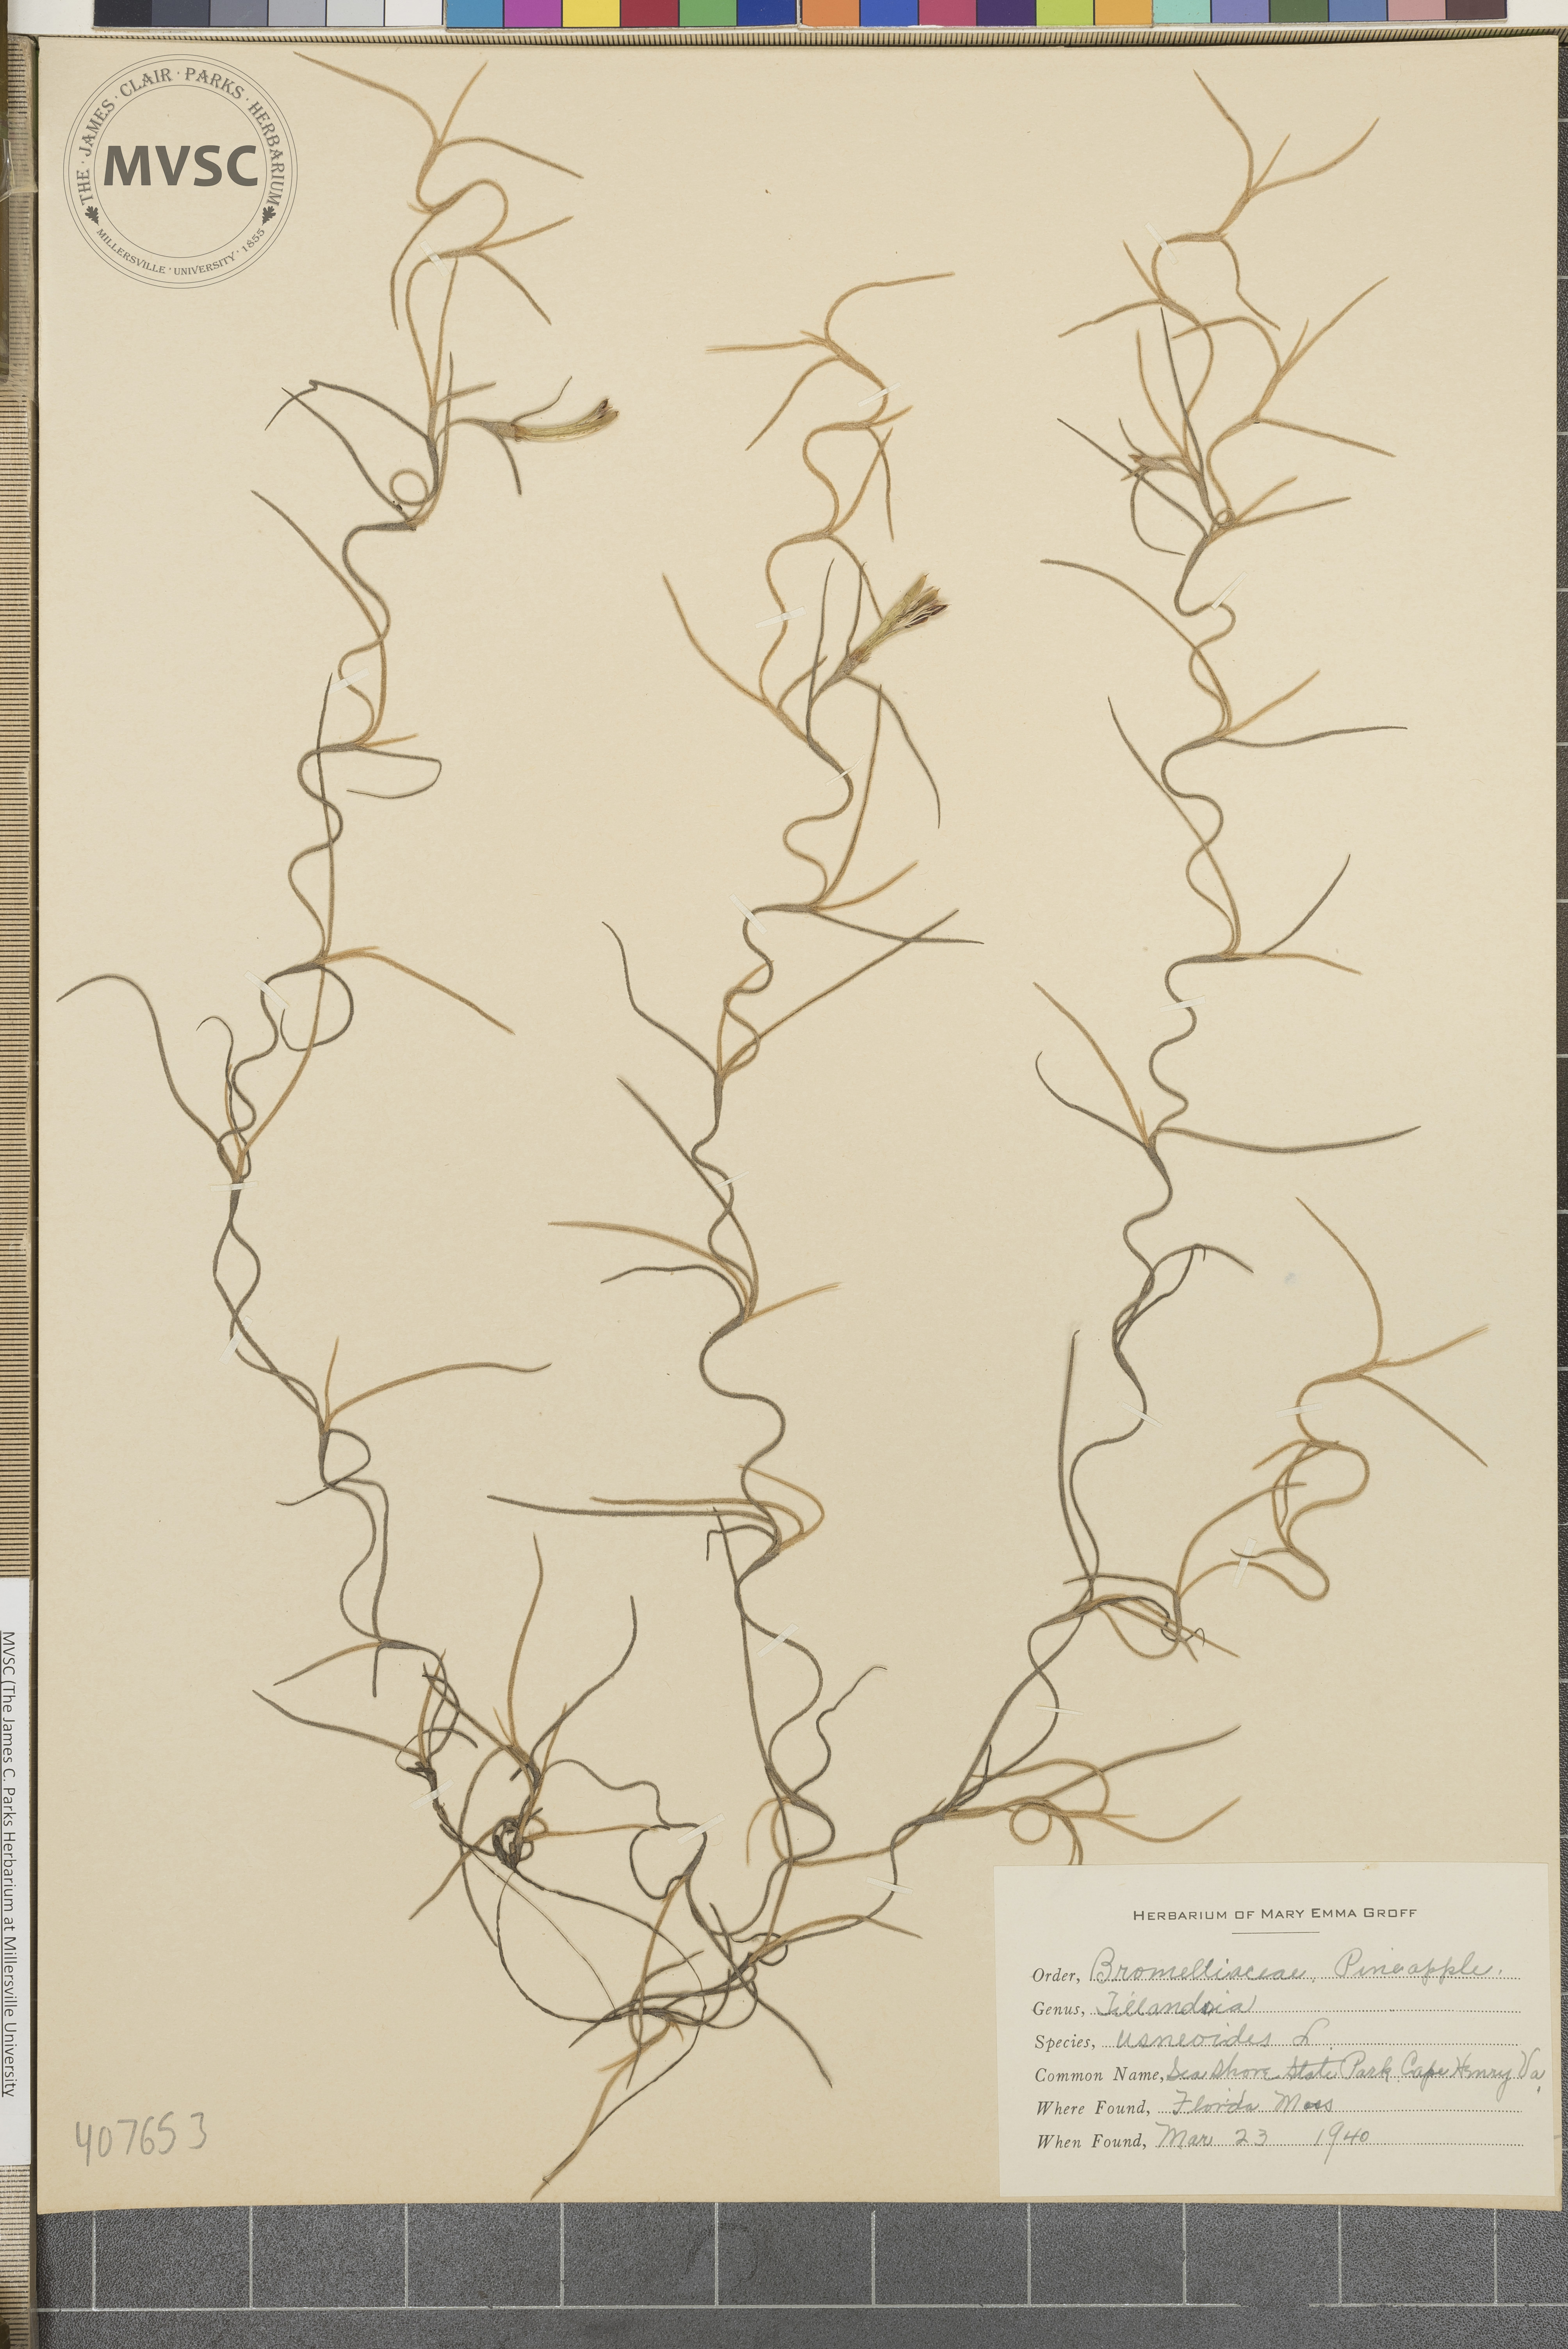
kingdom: Plantae
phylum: Tracheophyta
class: Liliopsida
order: Poales
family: Bromeliaceae
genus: Tillandsia
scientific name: Tillandsia usneoides
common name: Spanish moss
